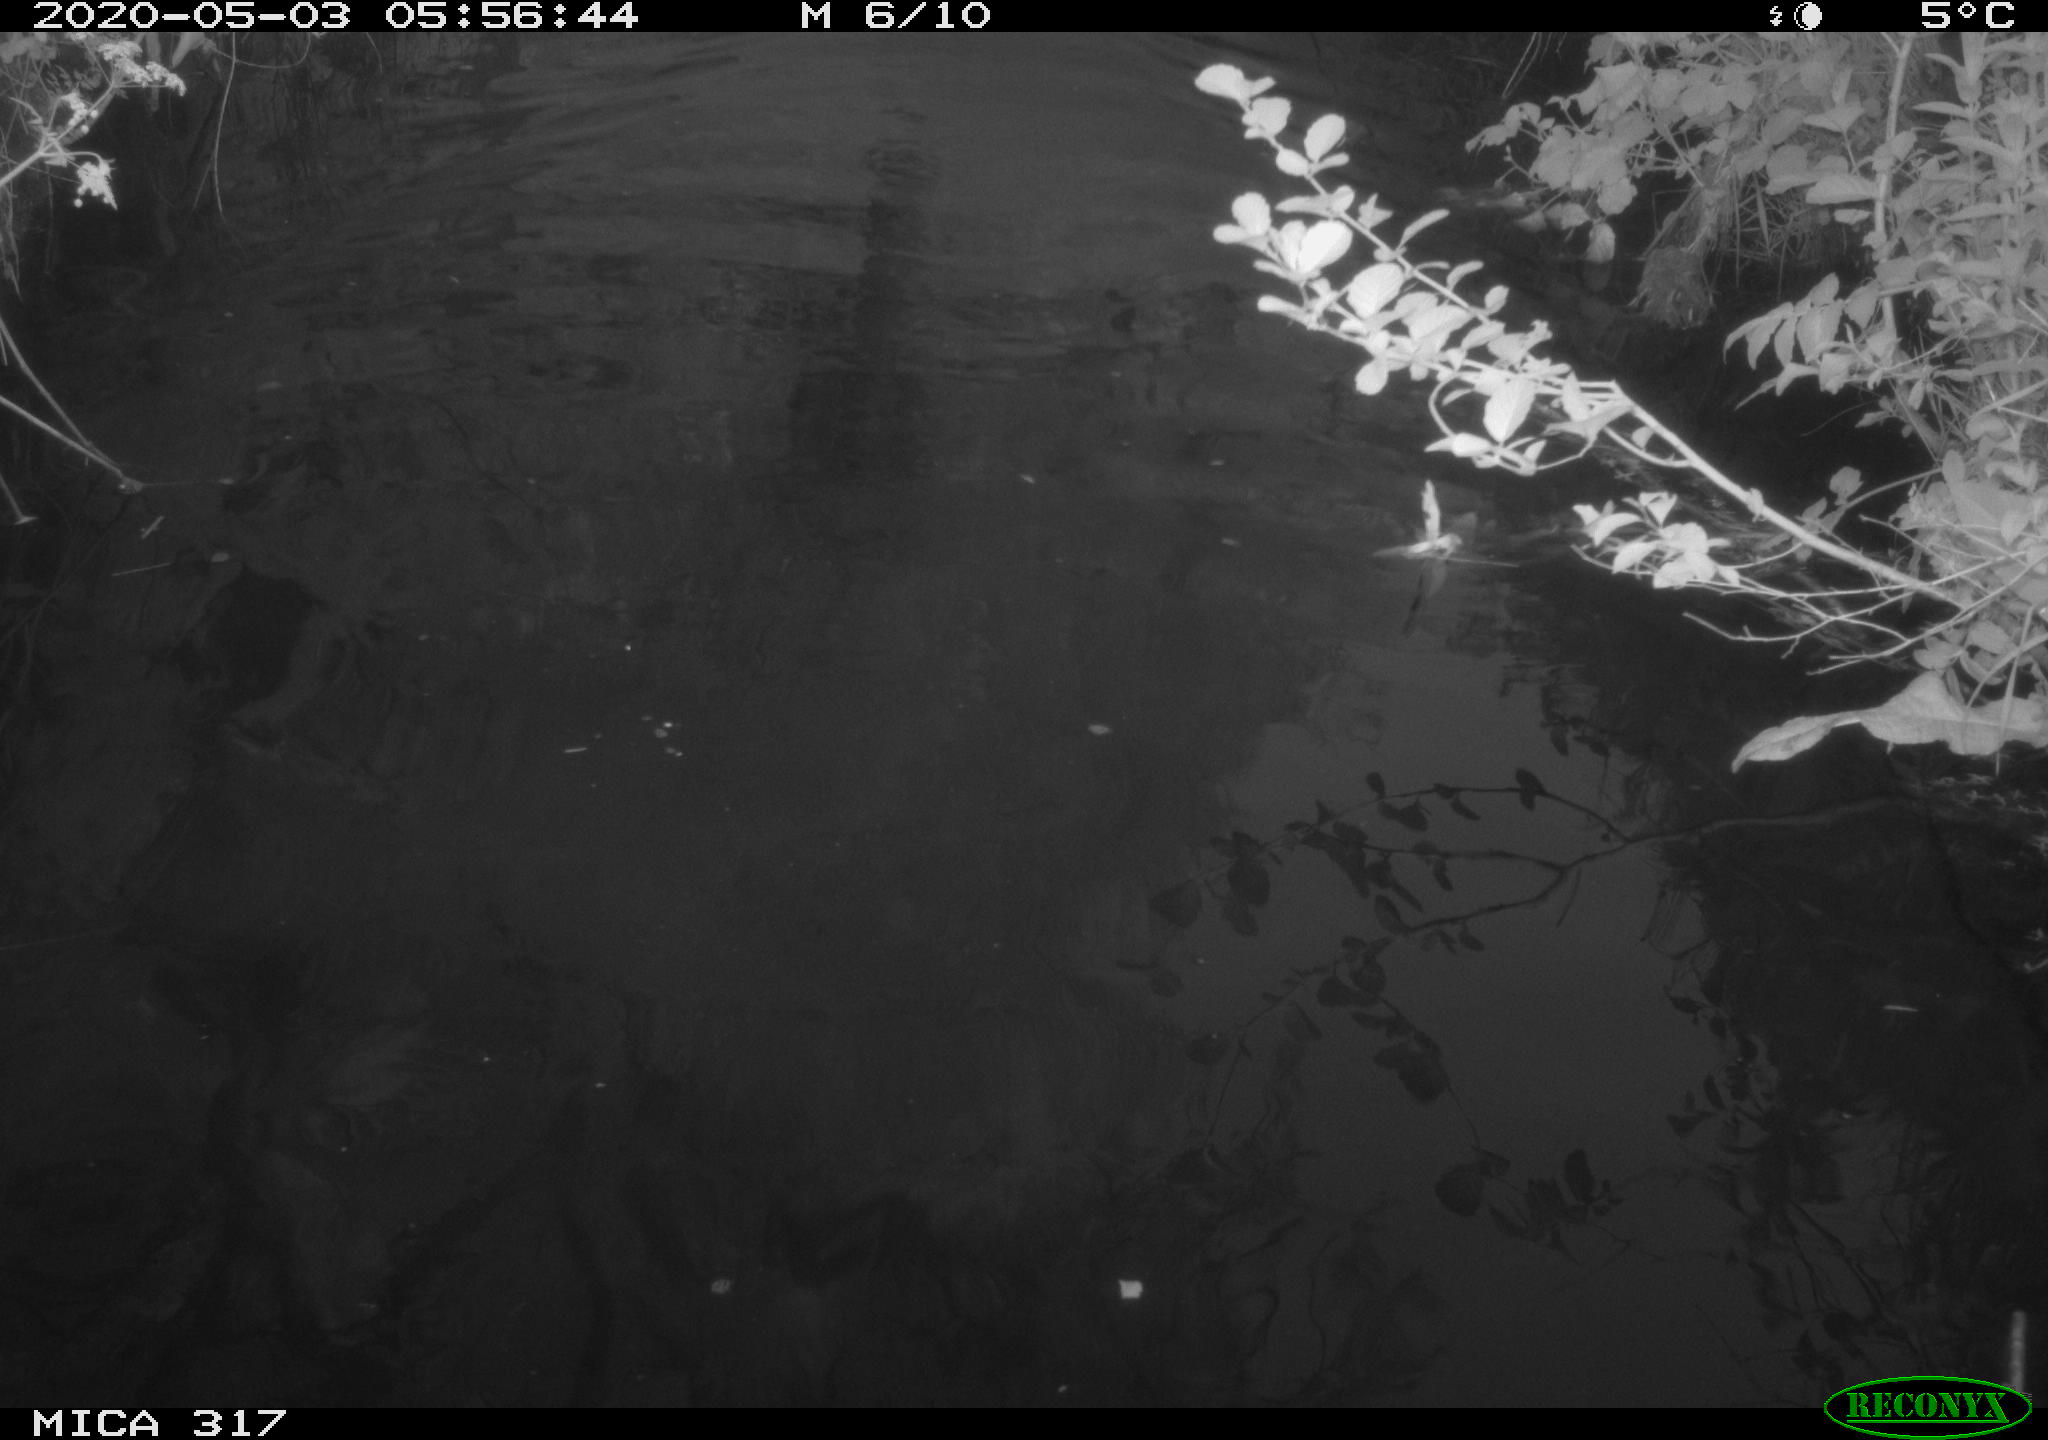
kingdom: Animalia
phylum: Chordata
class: Aves
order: Anseriformes
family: Anatidae
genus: Anas
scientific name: Anas platyrhynchos
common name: Mallard
